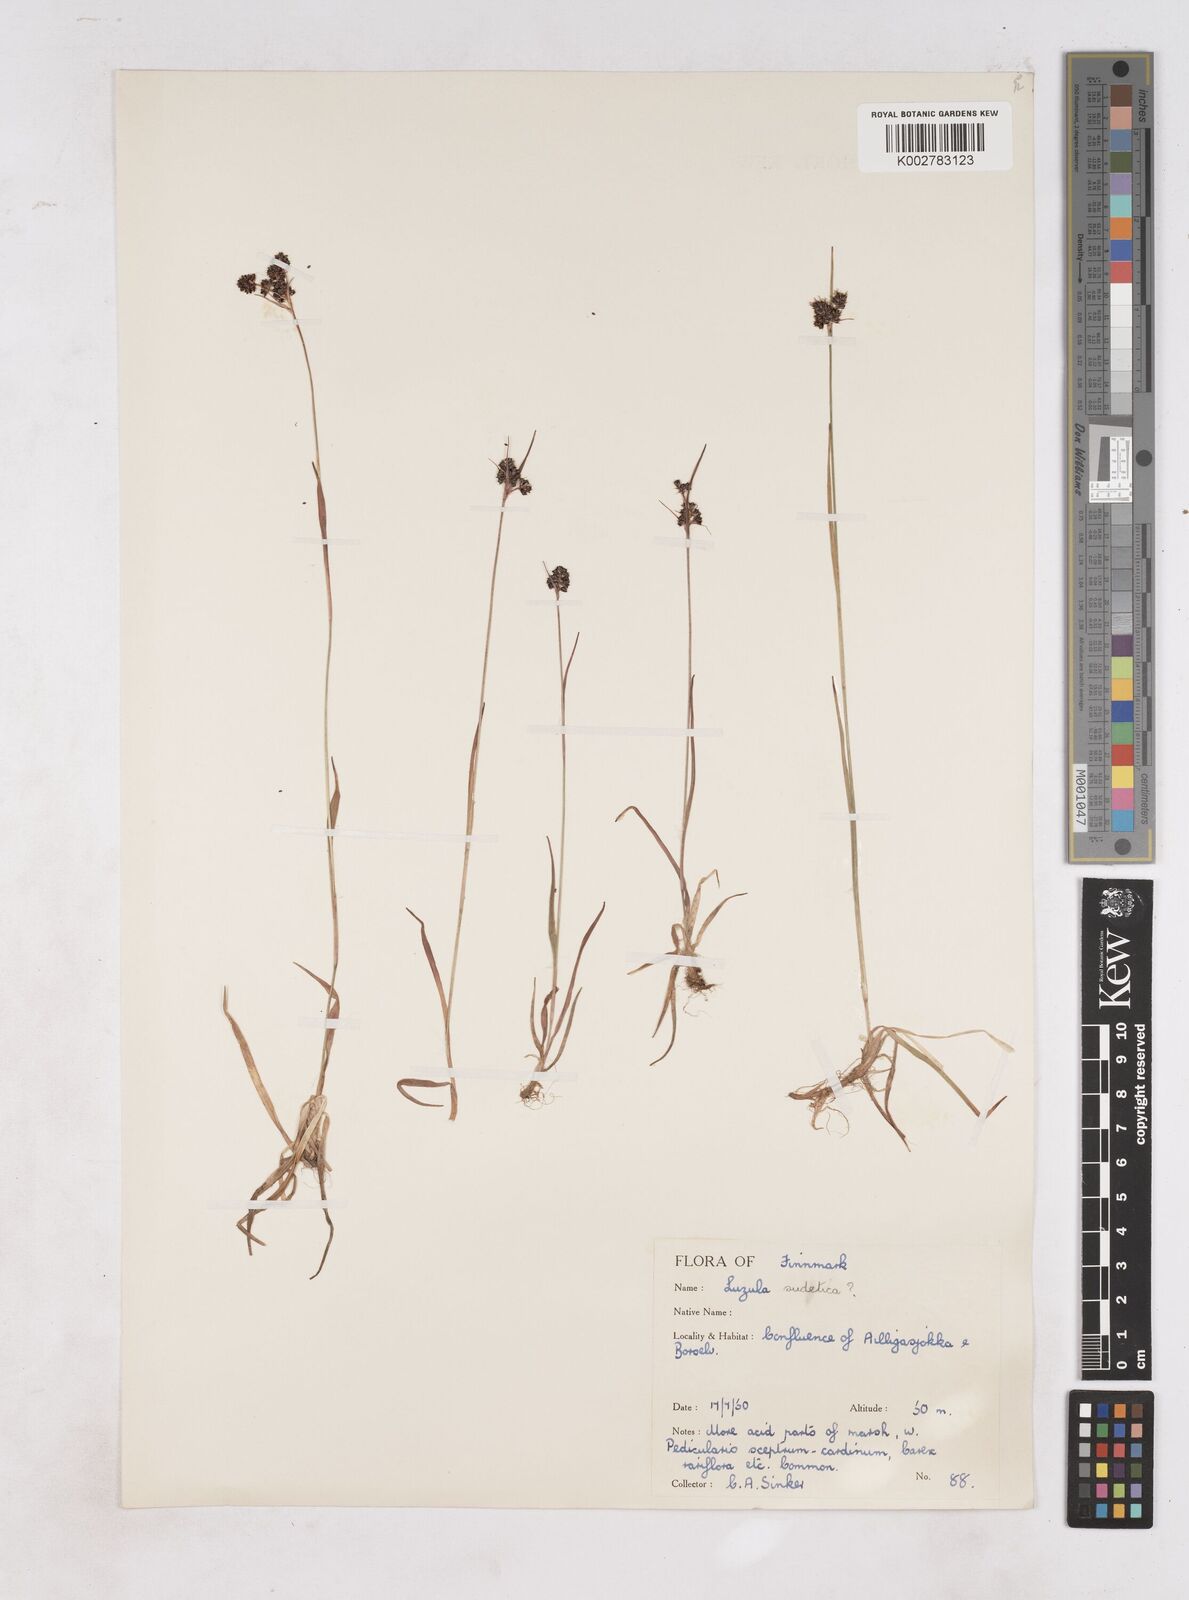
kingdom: Plantae
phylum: Tracheophyta
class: Liliopsida
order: Poales
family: Juncaceae
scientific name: Juncaceae
